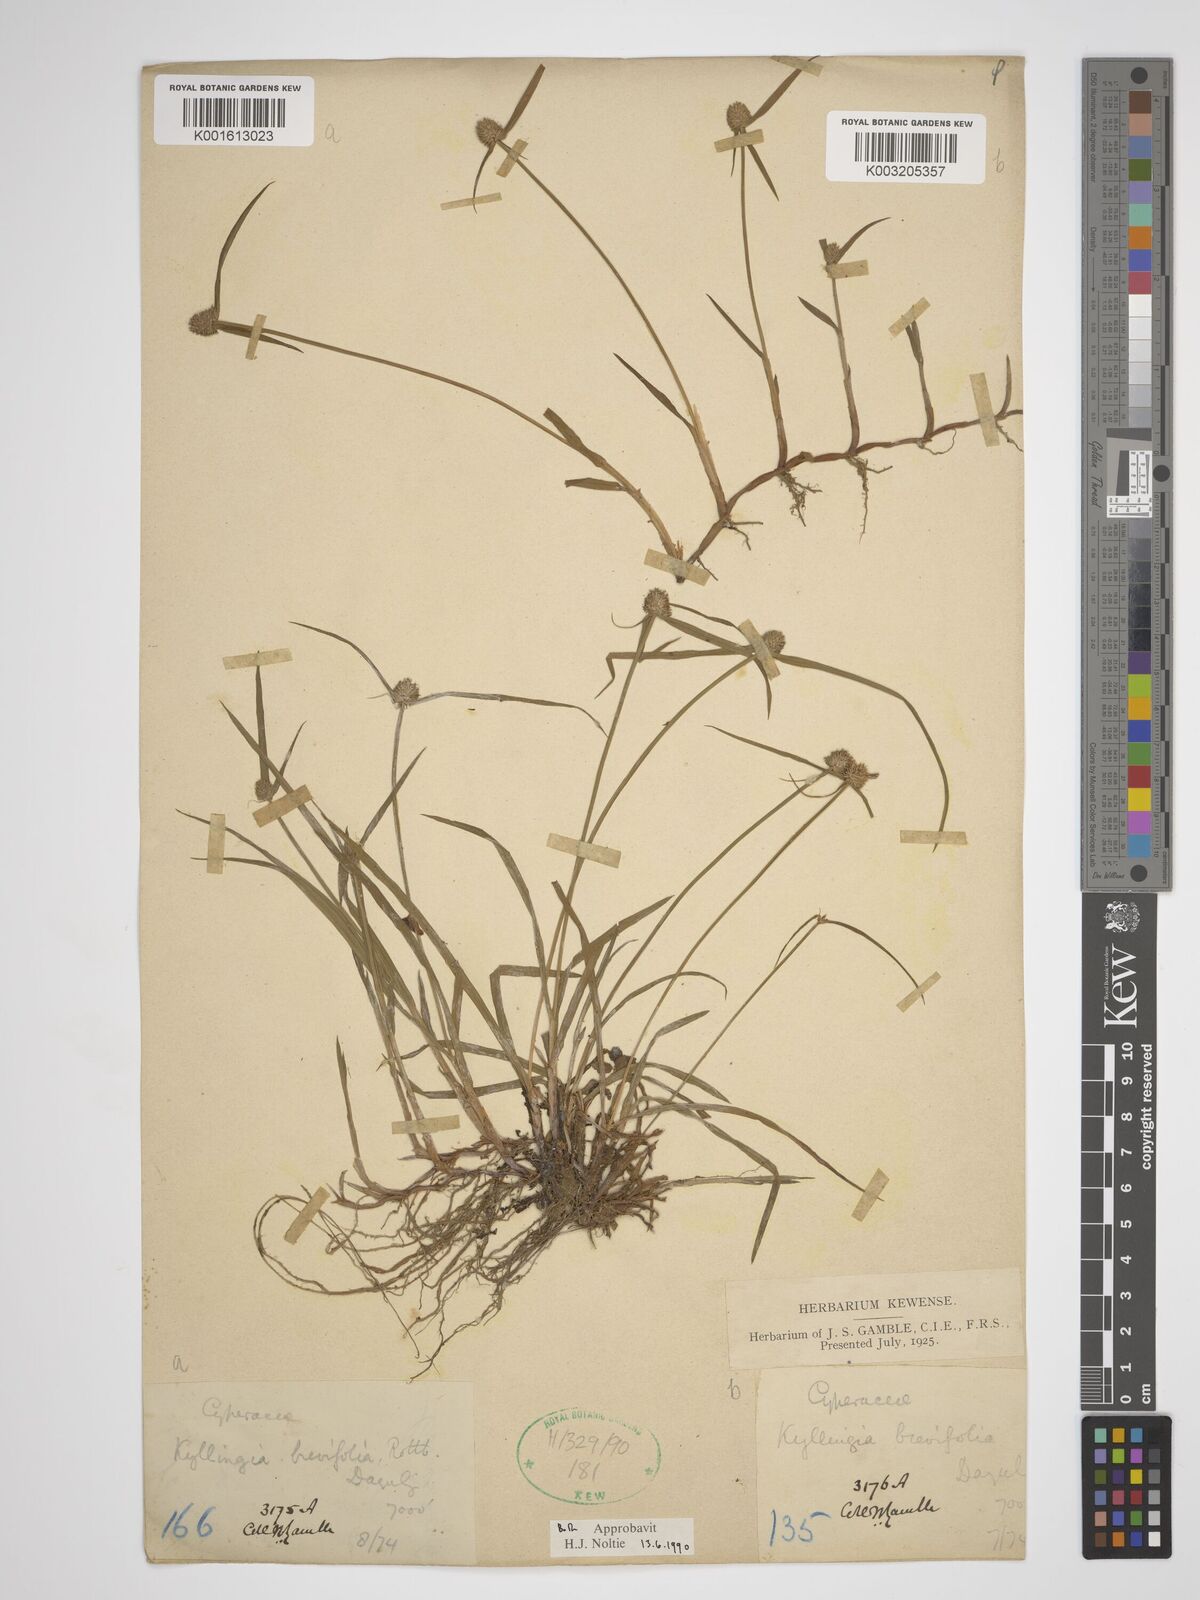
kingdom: Plantae
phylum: Tracheophyta
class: Liliopsida
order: Poales
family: Cyperaceae
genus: Cyperus
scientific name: Cyperus brevifolius
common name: Globe kyllinga
